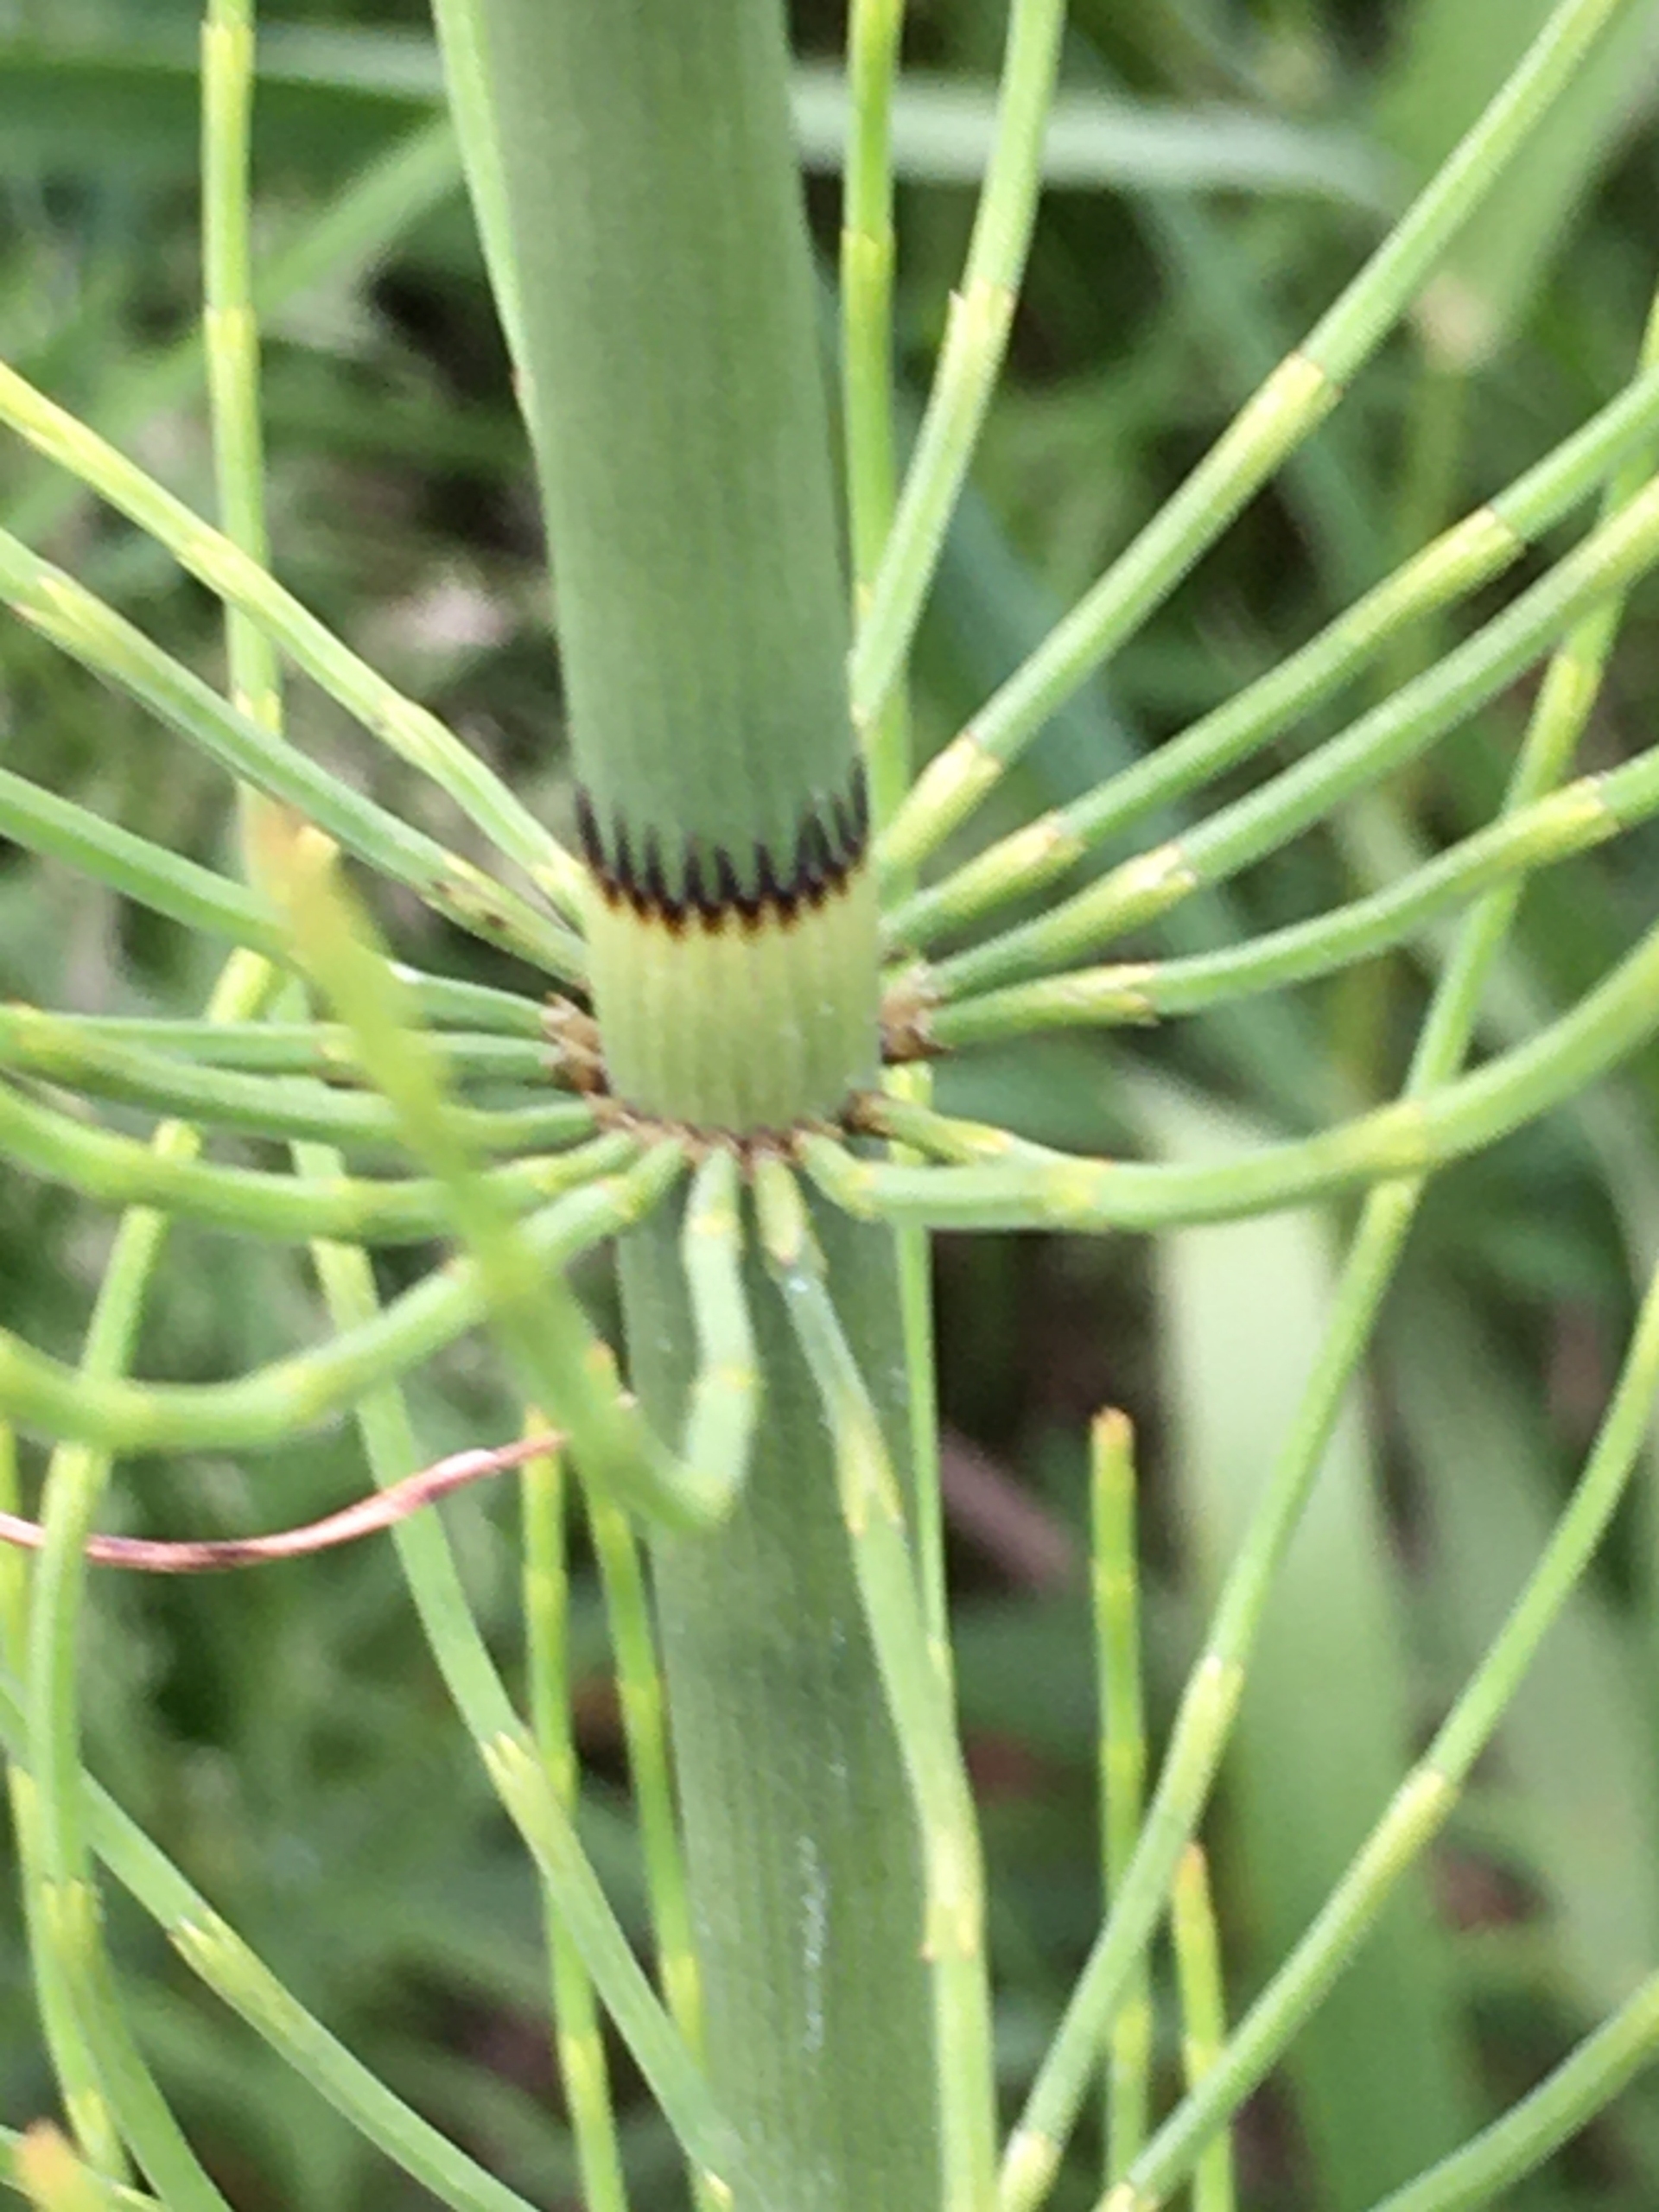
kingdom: Plantae
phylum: Tracheophyta
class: Polypodiopsida
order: Equisetales
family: Equisetaceae
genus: Equisetum
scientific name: Equisetum fluviatile
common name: Dynd-padderok
